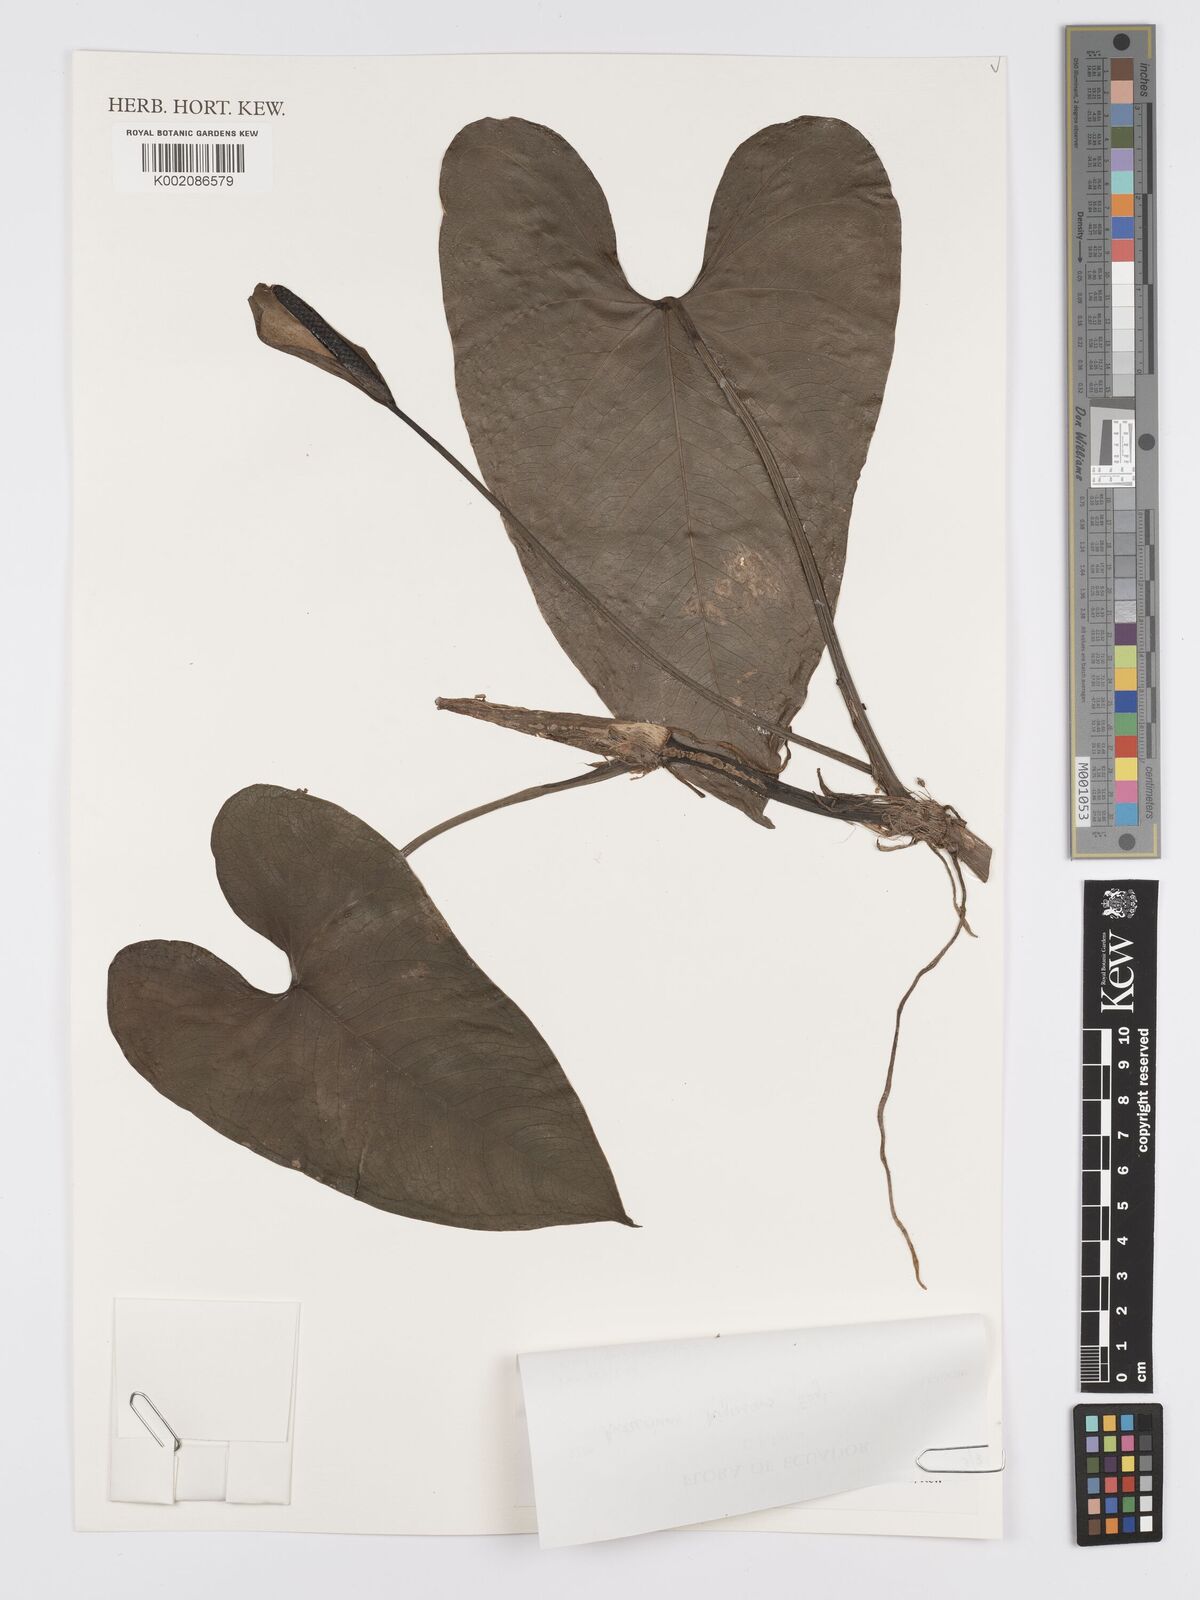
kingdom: Plantae
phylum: Tracheophyta
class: Liliopsida
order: Alismatales
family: Araceae
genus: Anthurium
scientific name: Anthurium nigrescens
